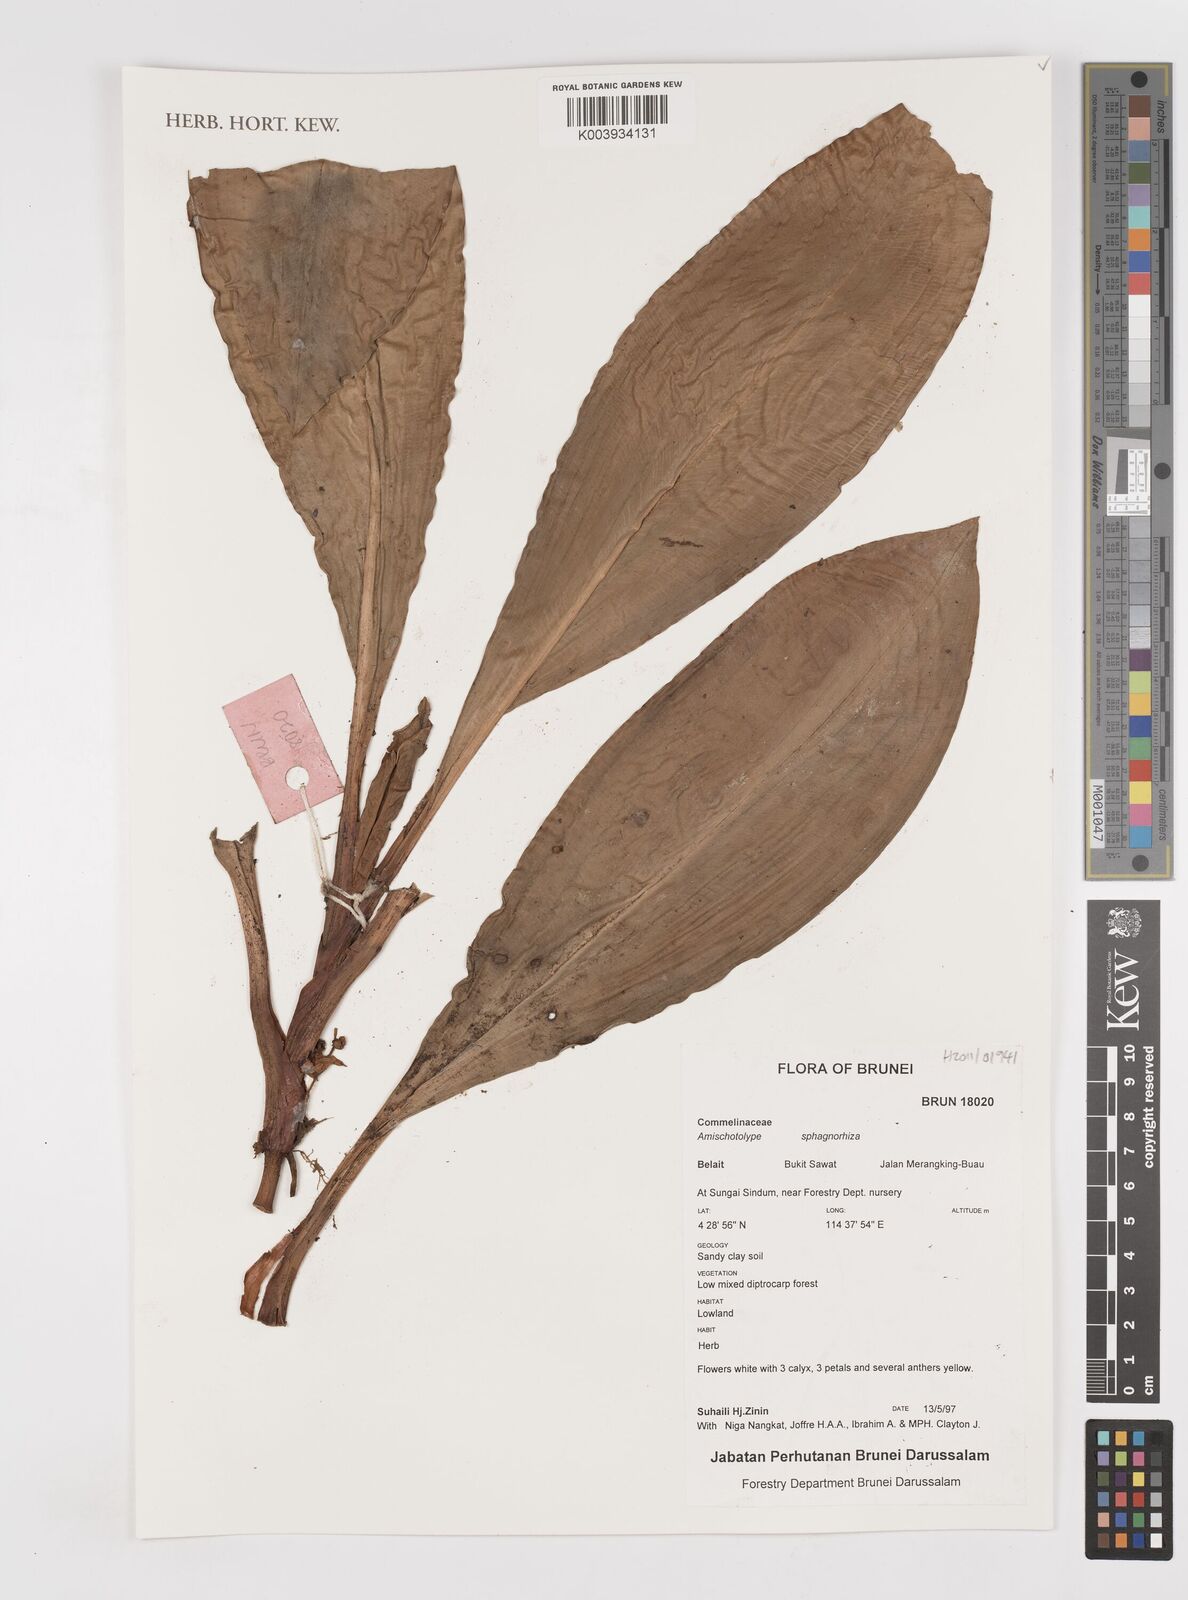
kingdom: Plantae
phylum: Tracheophyta
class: Liliopsida
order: Commelinales
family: Commelinaceae
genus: Amischotolype
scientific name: Amischotolype
